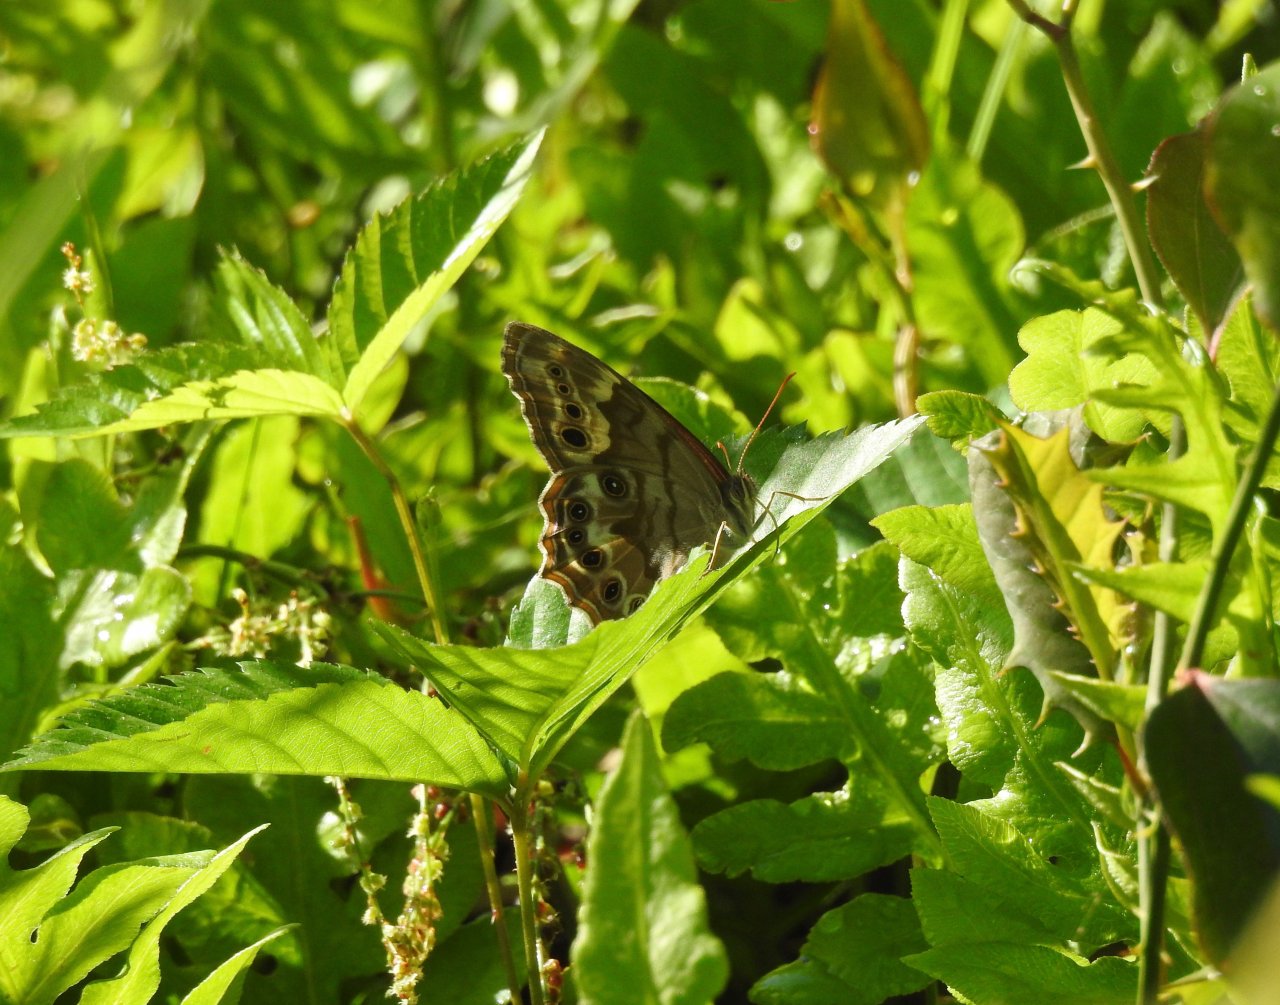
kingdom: Animalia
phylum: Arthropoda
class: Insecta
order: Lepidoptera
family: Nymphalidae
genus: Enodia
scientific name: Enodia portlandia
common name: Southern Pearly Eye
